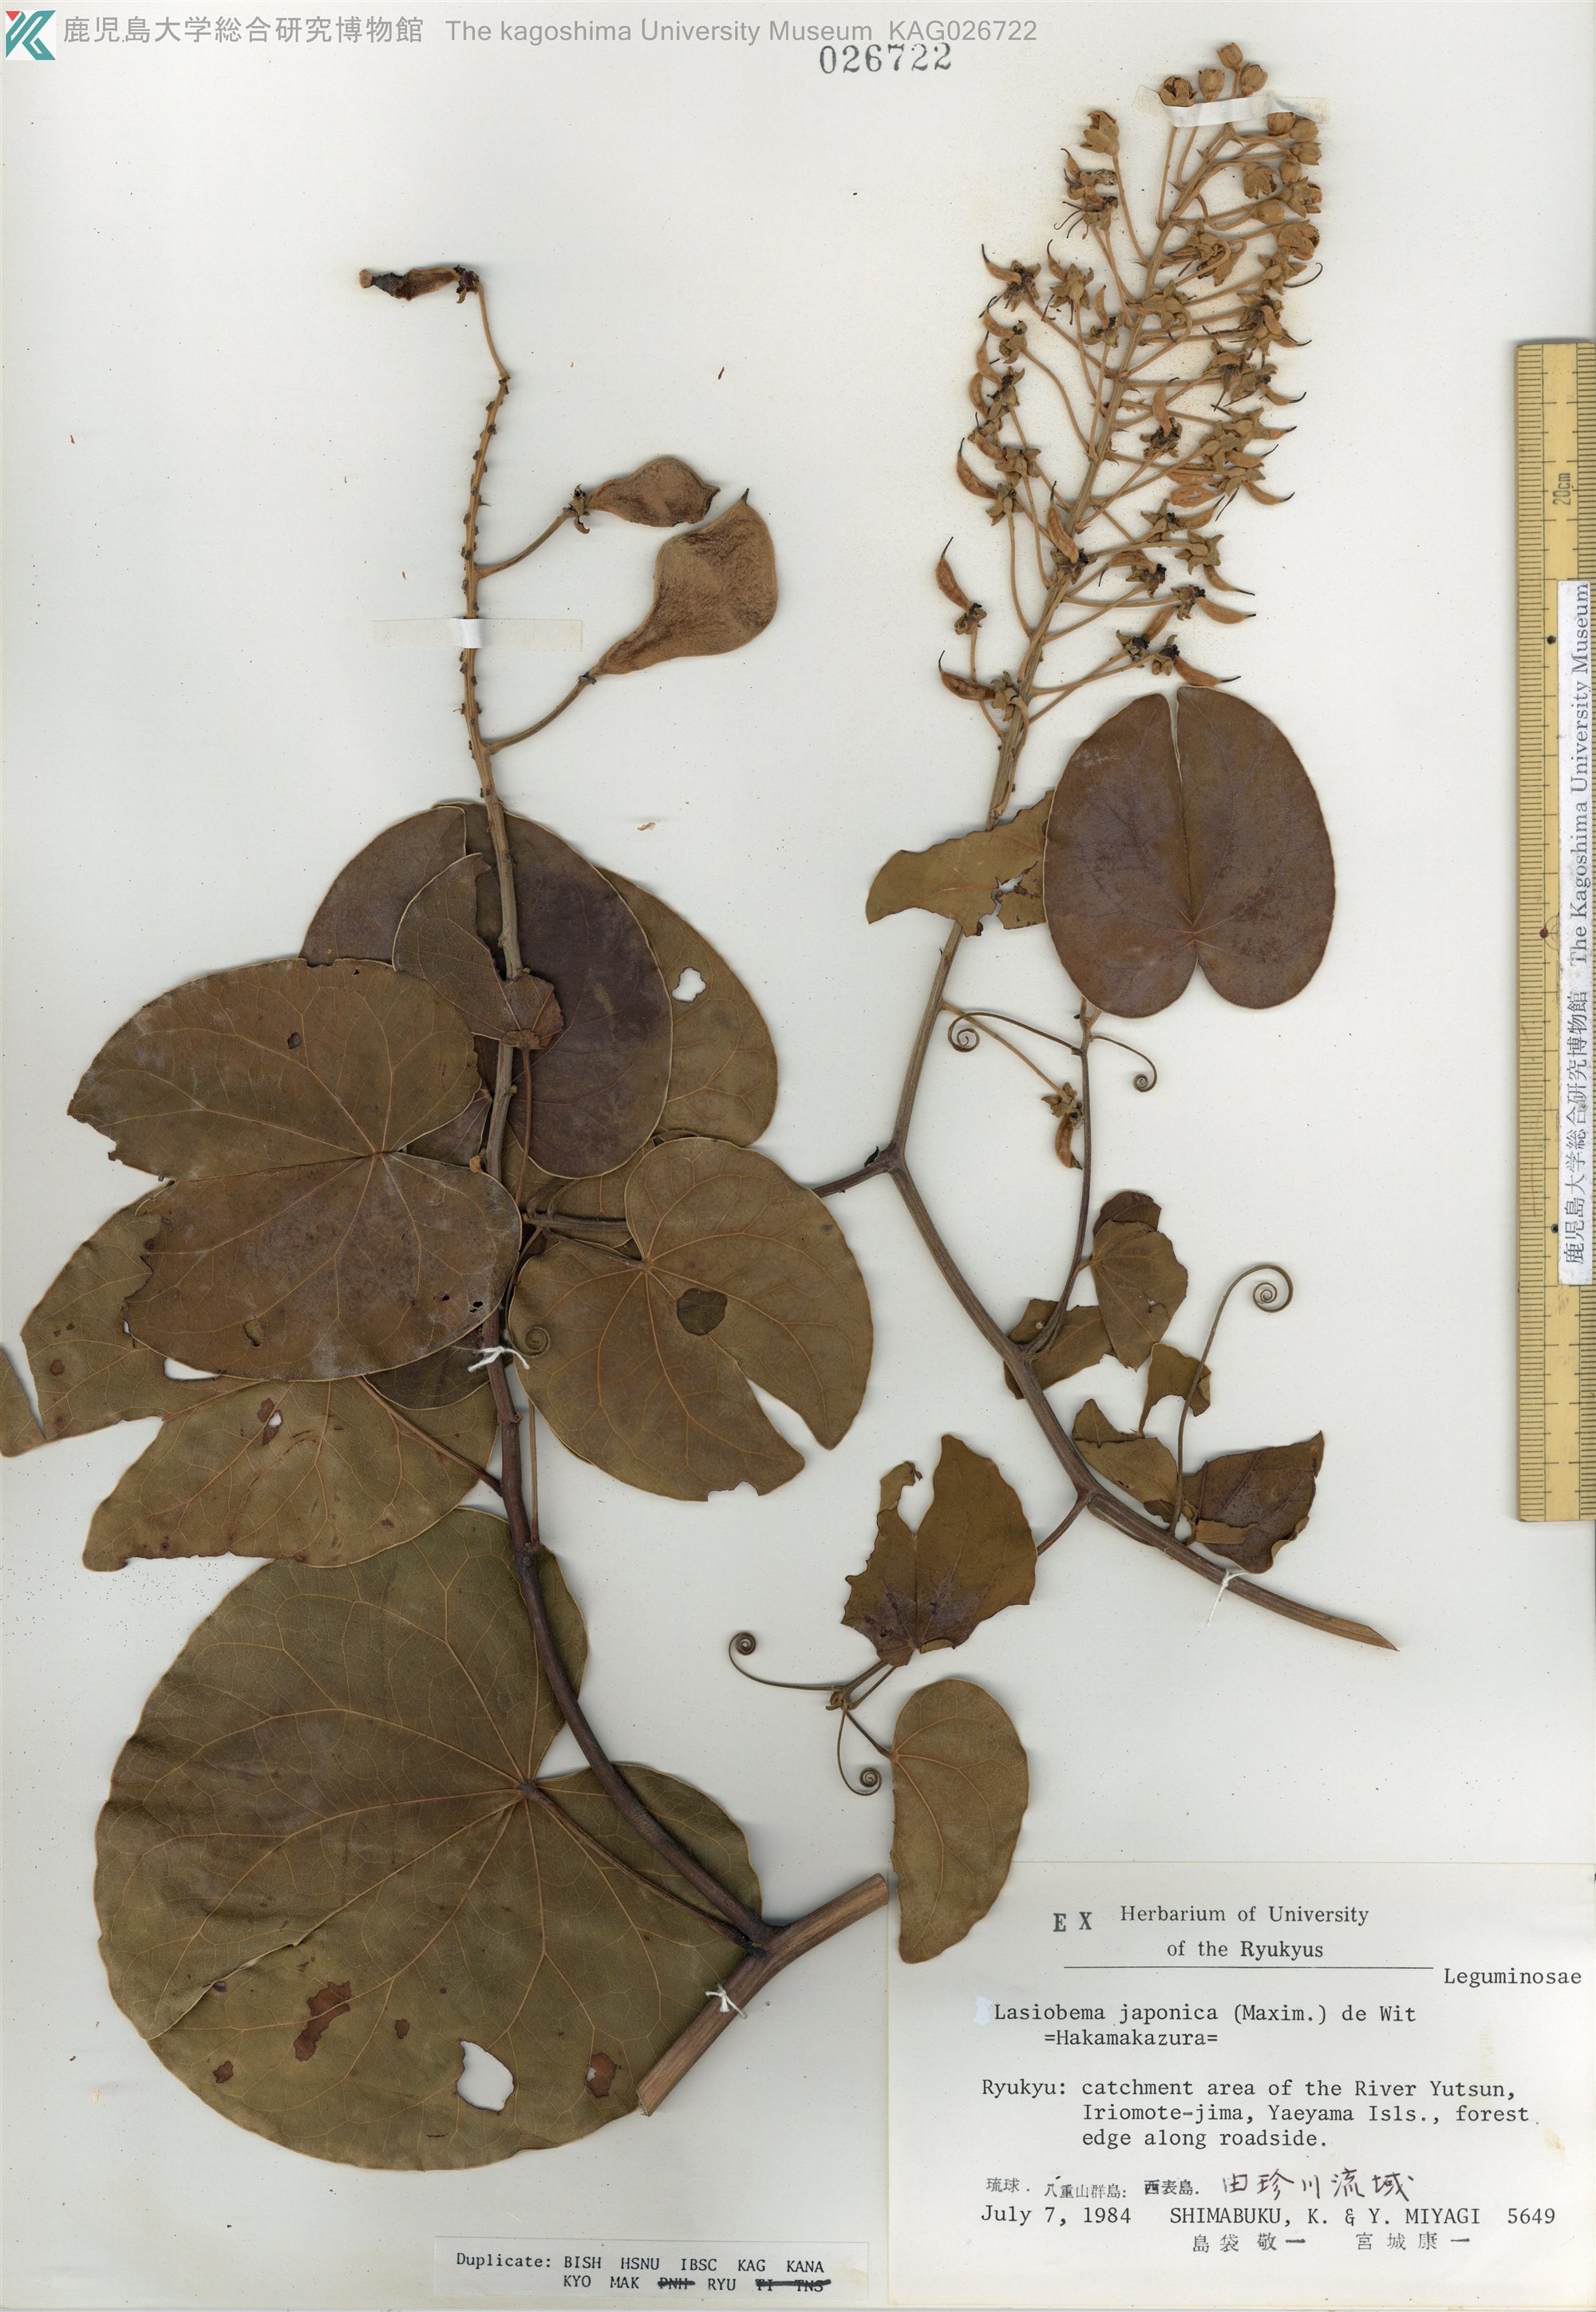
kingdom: Plantae
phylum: Tracheophyta
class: Magnoliopsida
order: Fabales
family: Fabaceae
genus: Phanera
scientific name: Phanera japonica
